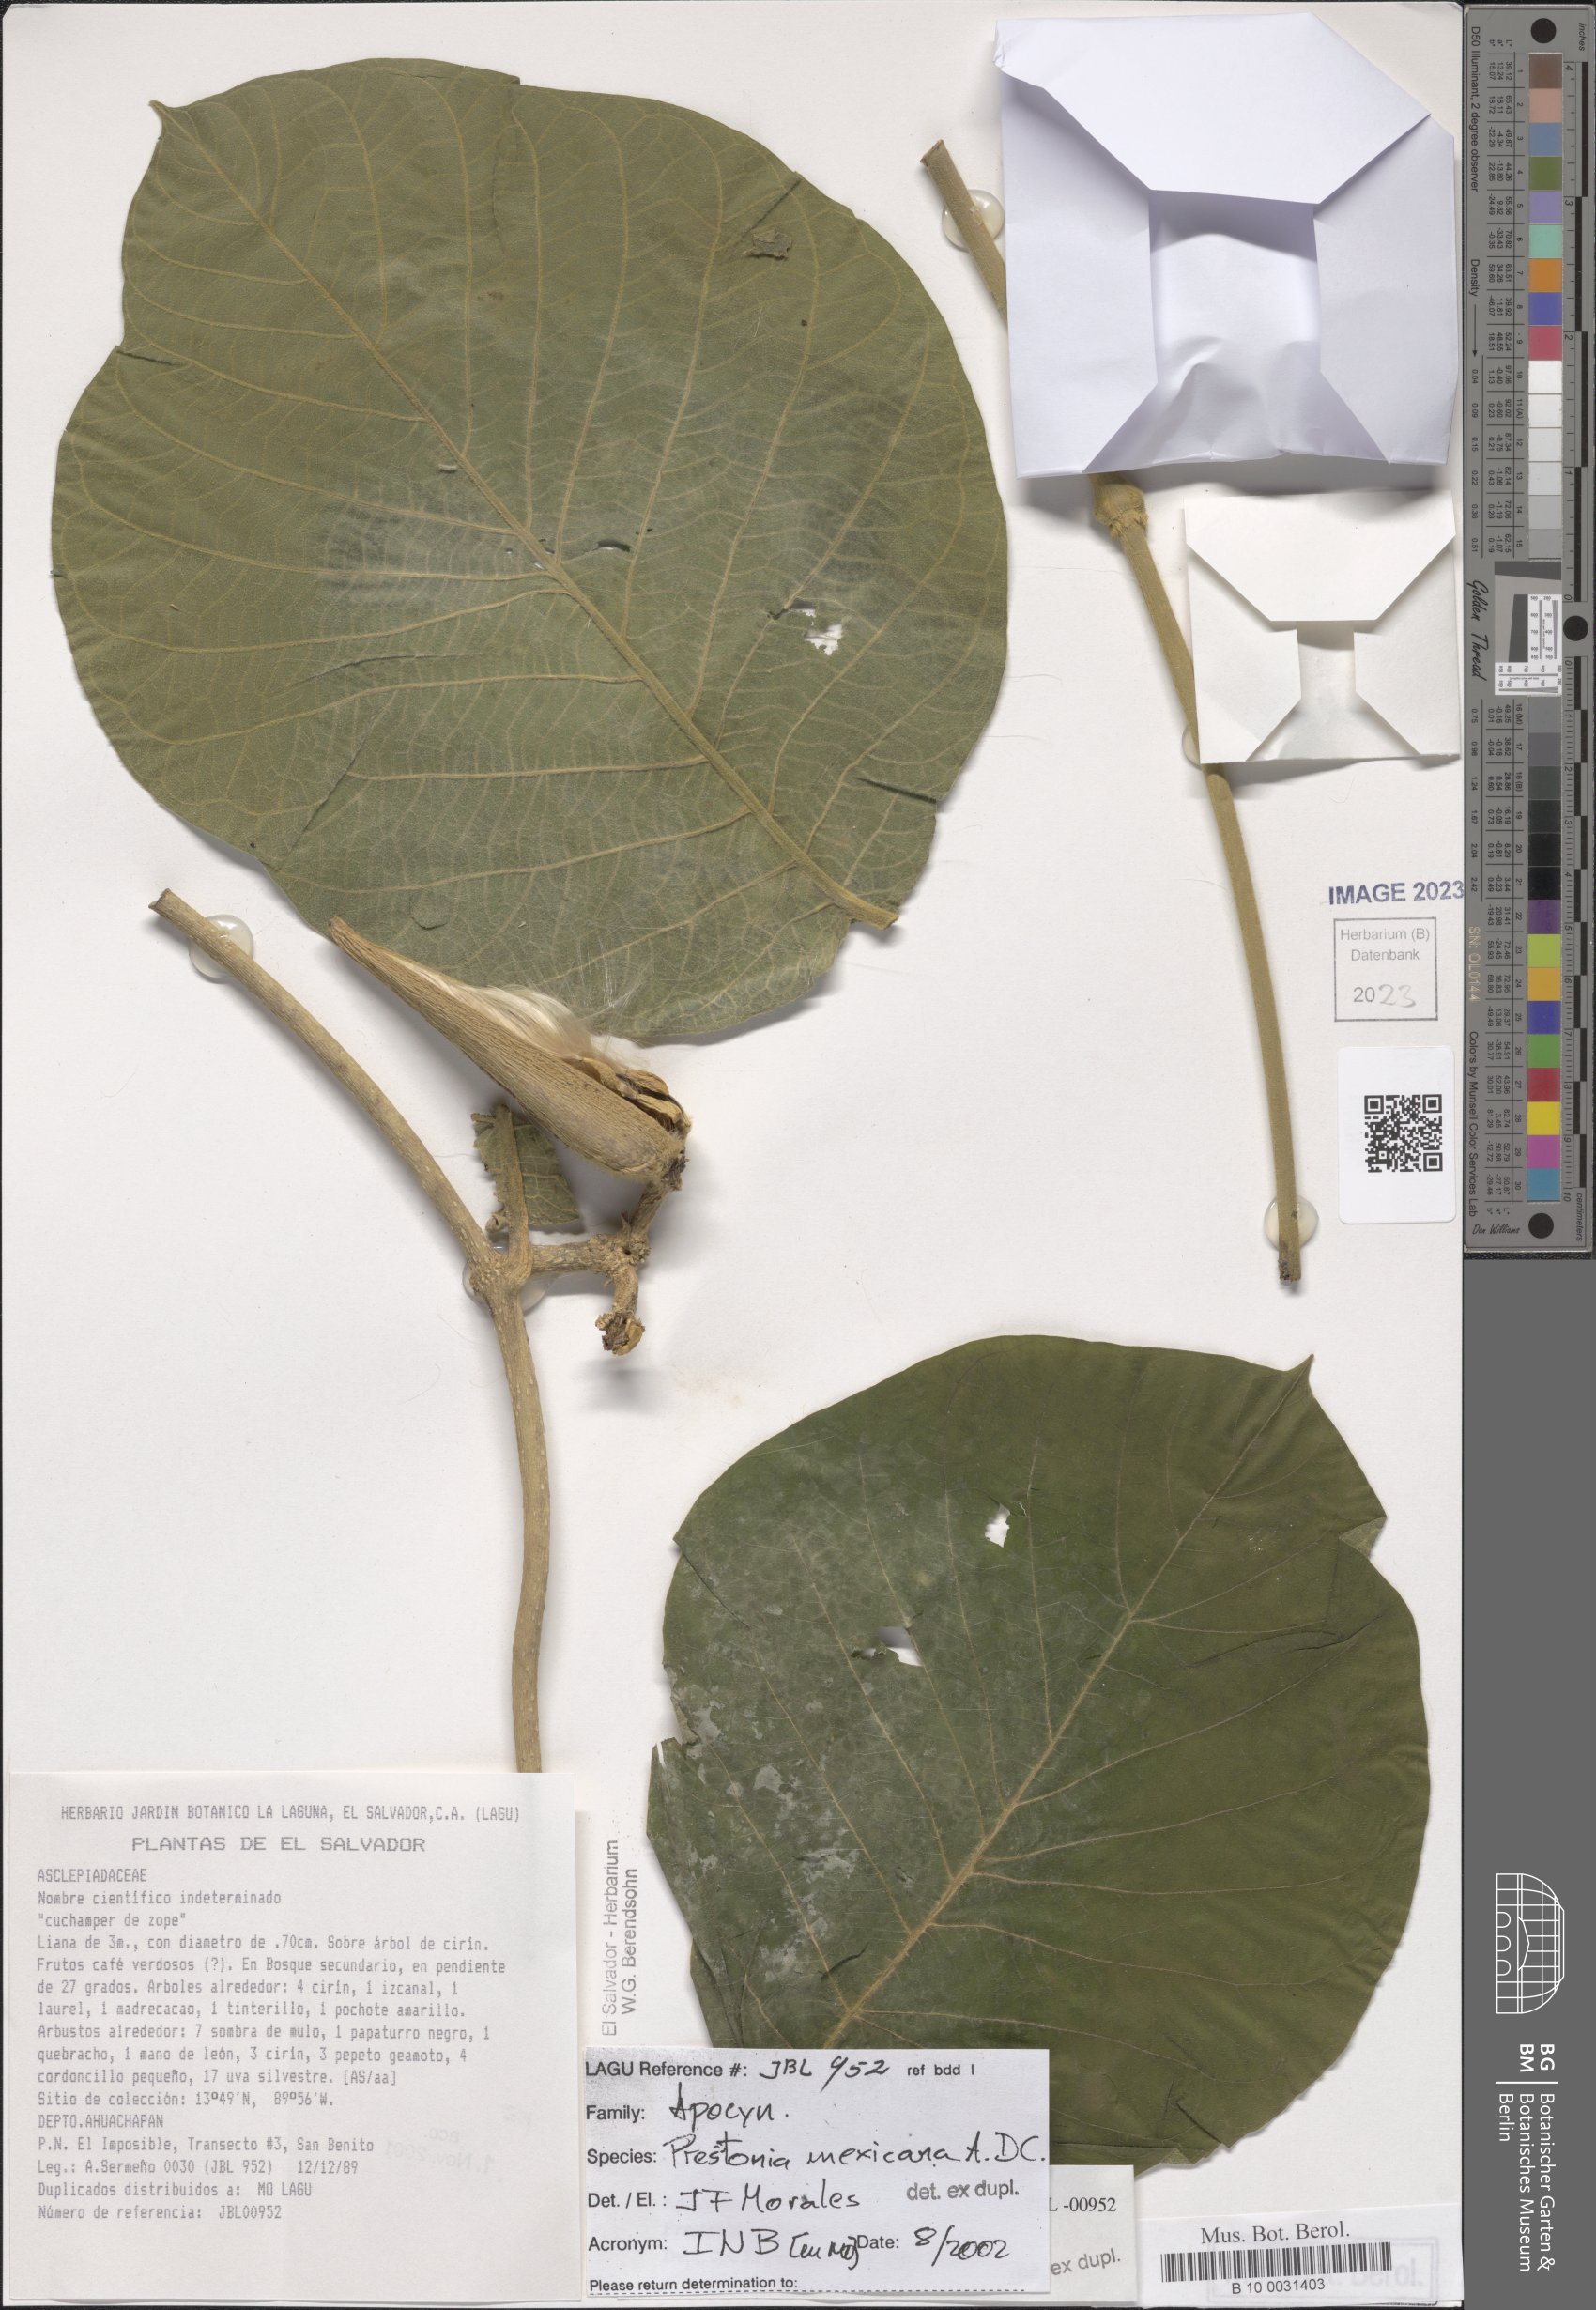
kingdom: Plantae
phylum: Tracheophyta
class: Magnoliopsida
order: Gentianales
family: Apocynaceae
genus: Prestonia
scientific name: Prestonia mexicana
